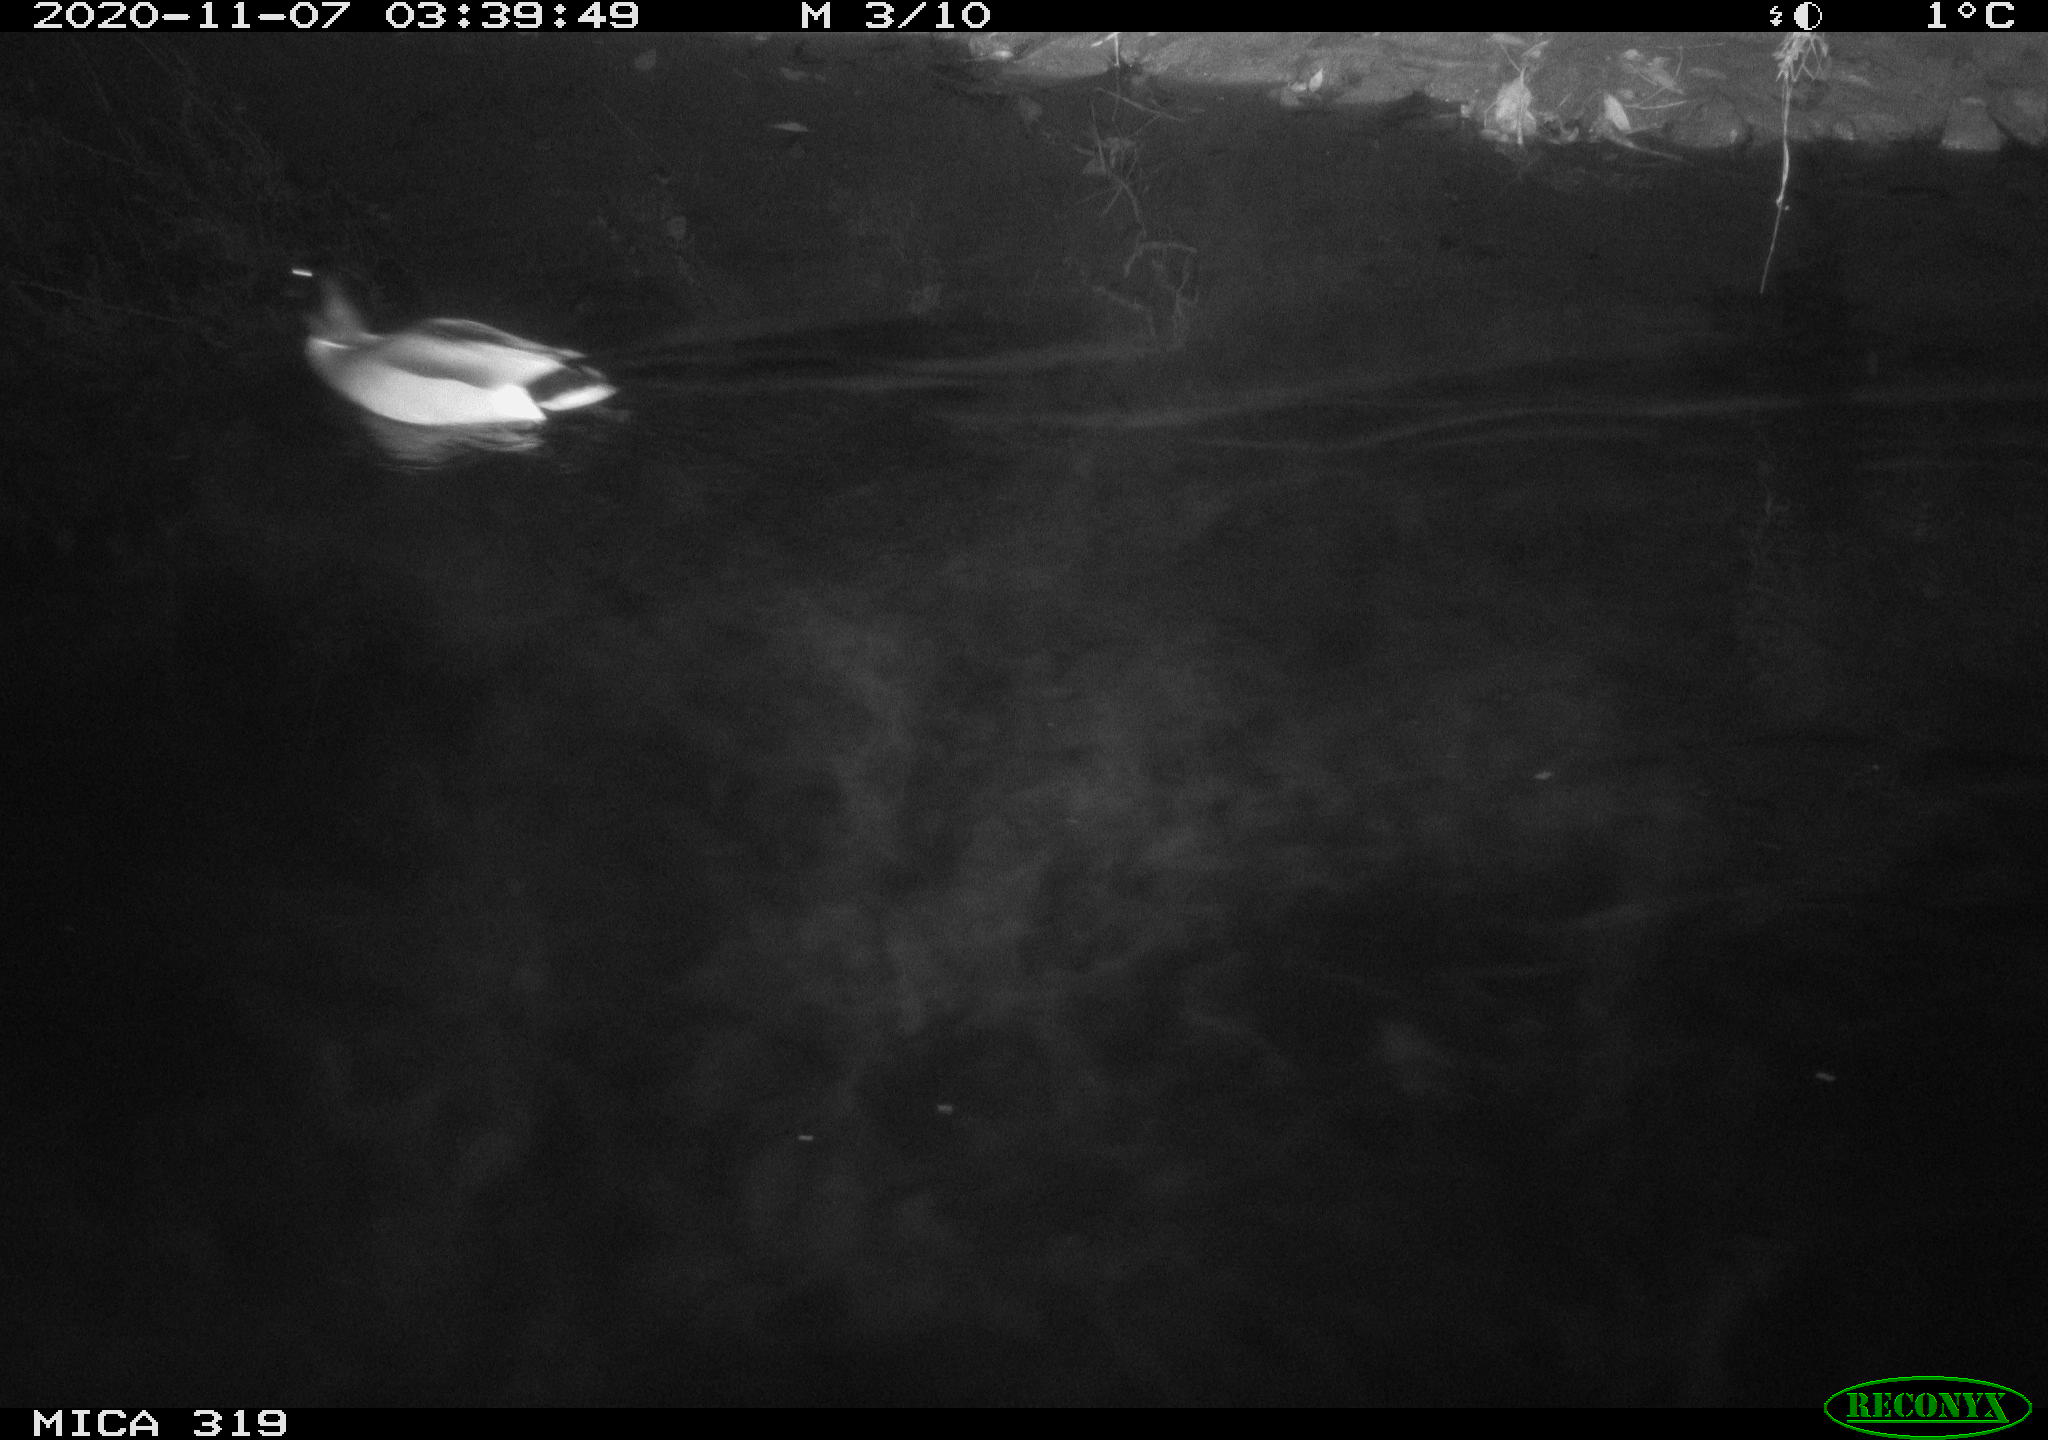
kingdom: Animalia
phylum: Chordata
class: Aves
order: Anseriformes
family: Anatidae
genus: Anas
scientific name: Anas platyrhynchos
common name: Mallard
